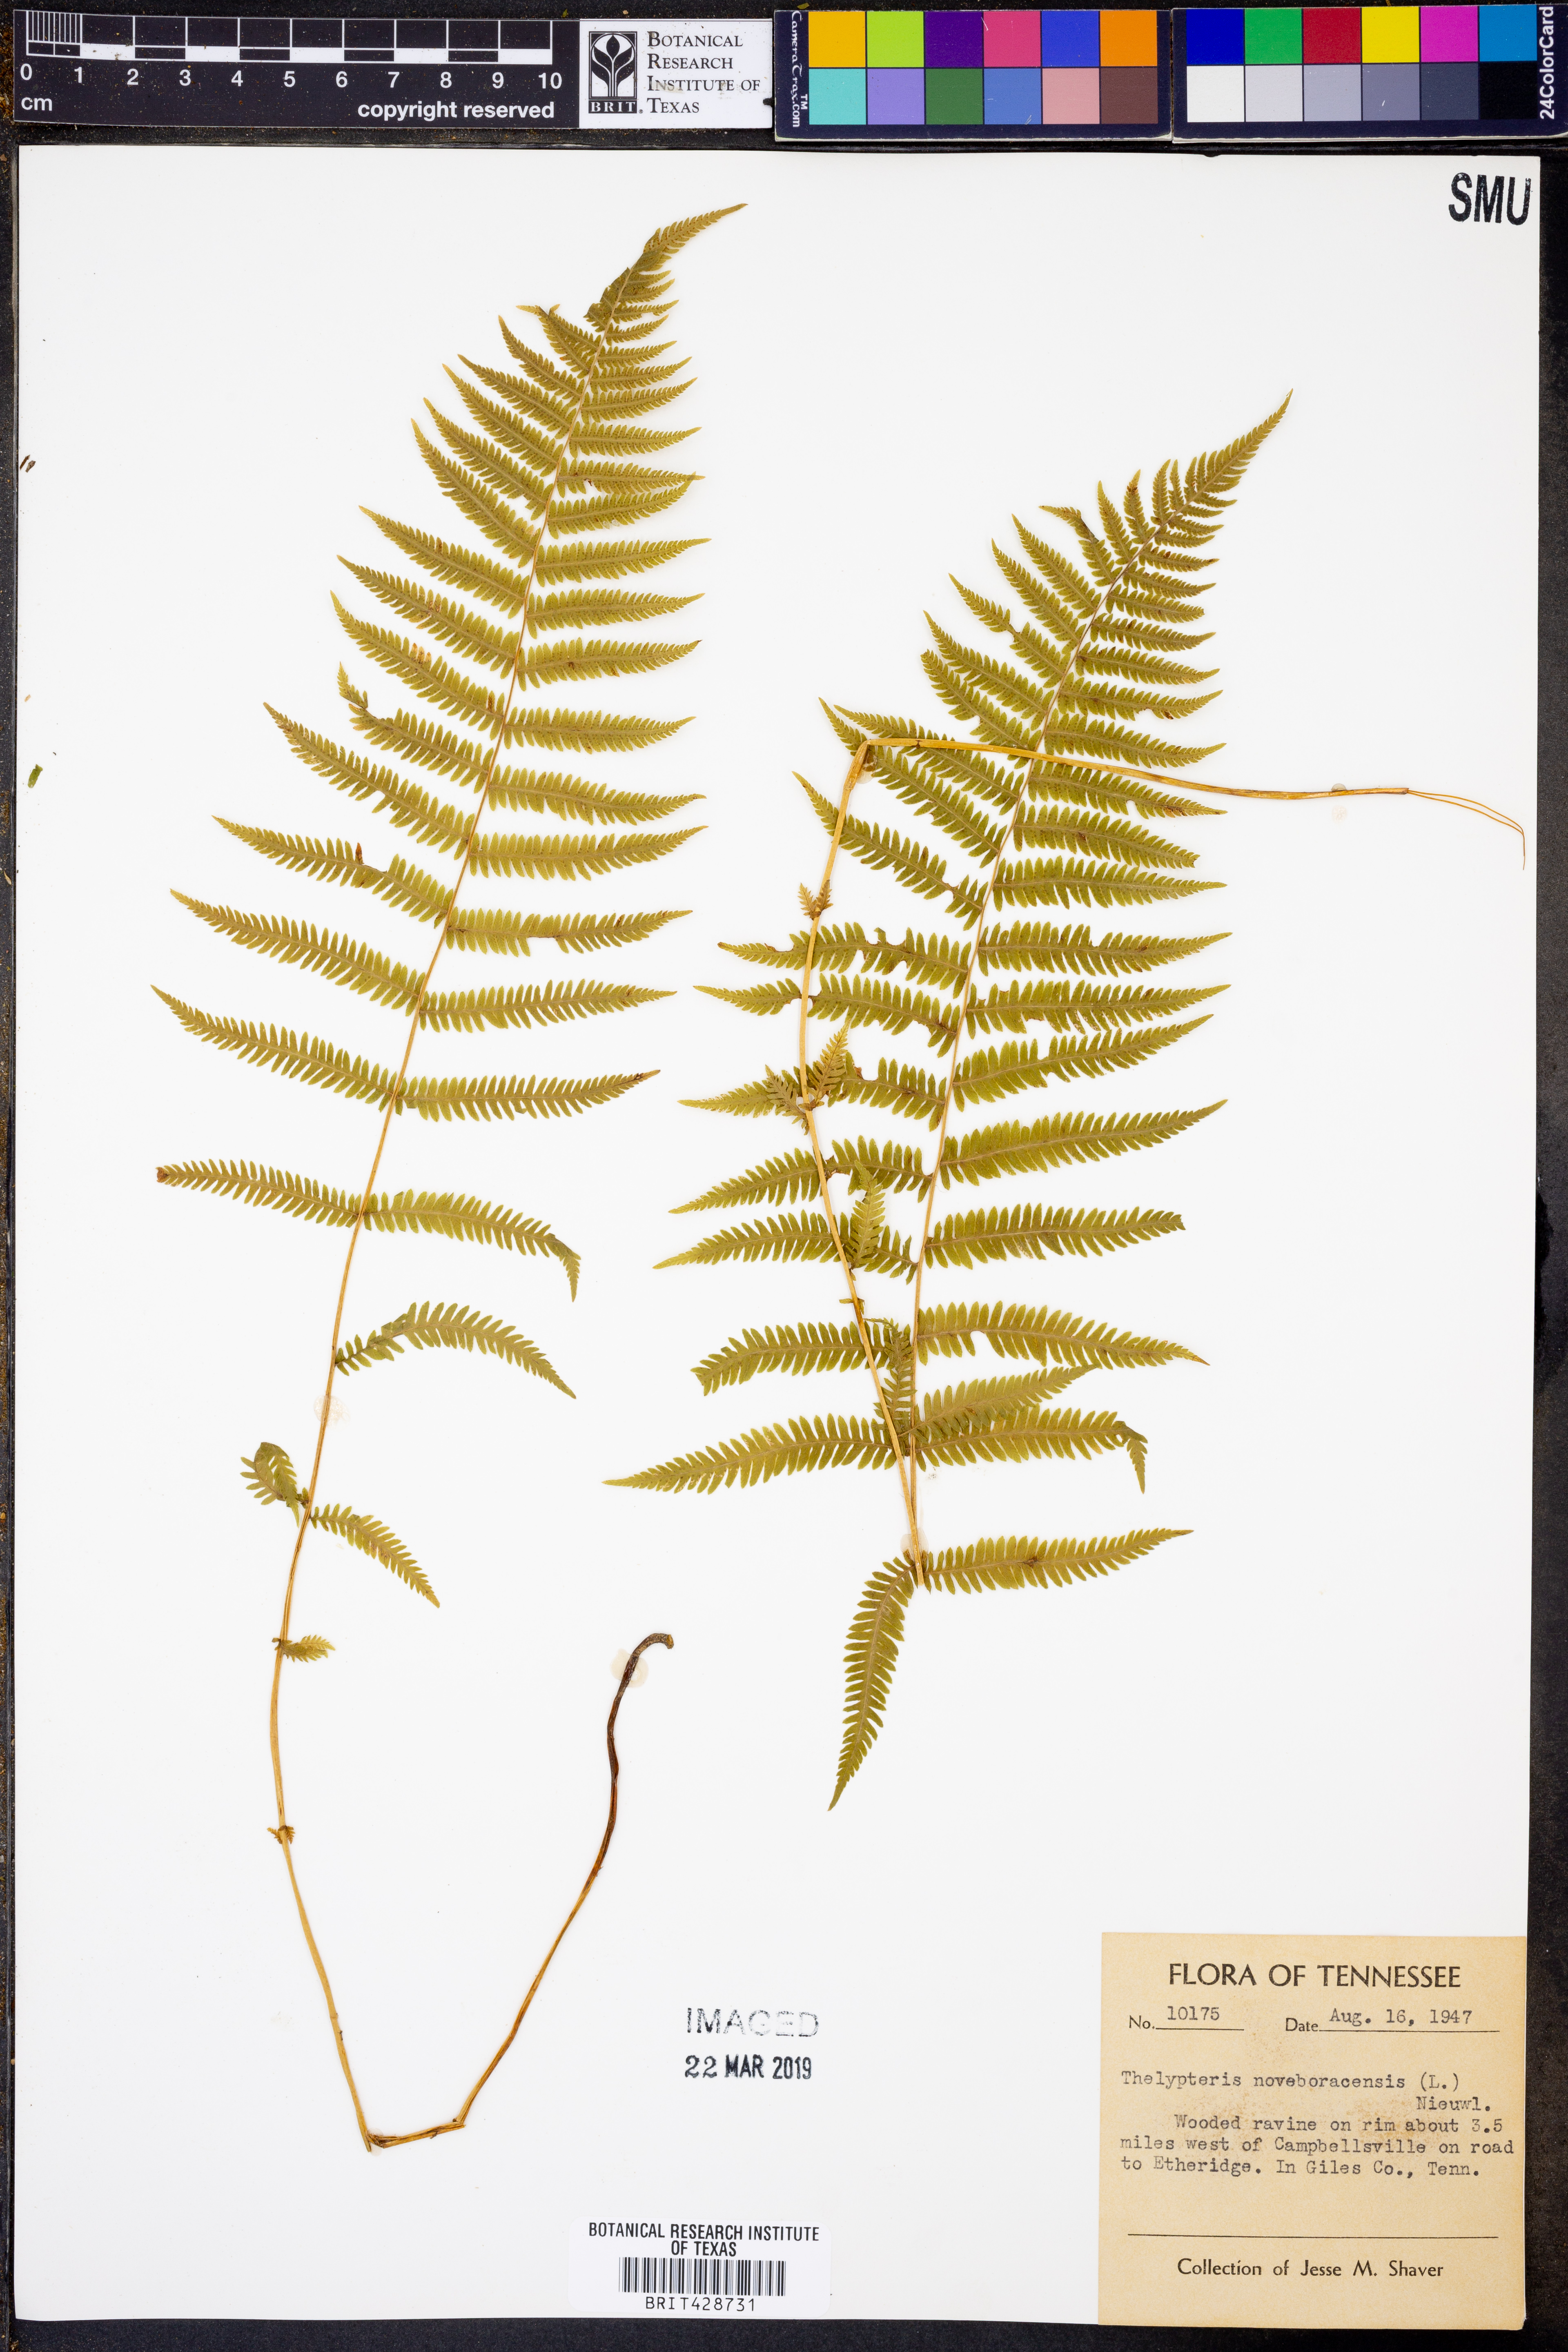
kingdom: Plantae
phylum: Tracheophyta
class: Polypodiopsida
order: Polypodiales
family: Thelypteridaceae
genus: Amauropelta
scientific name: Amauropelta noveboracensis
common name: New york fern
